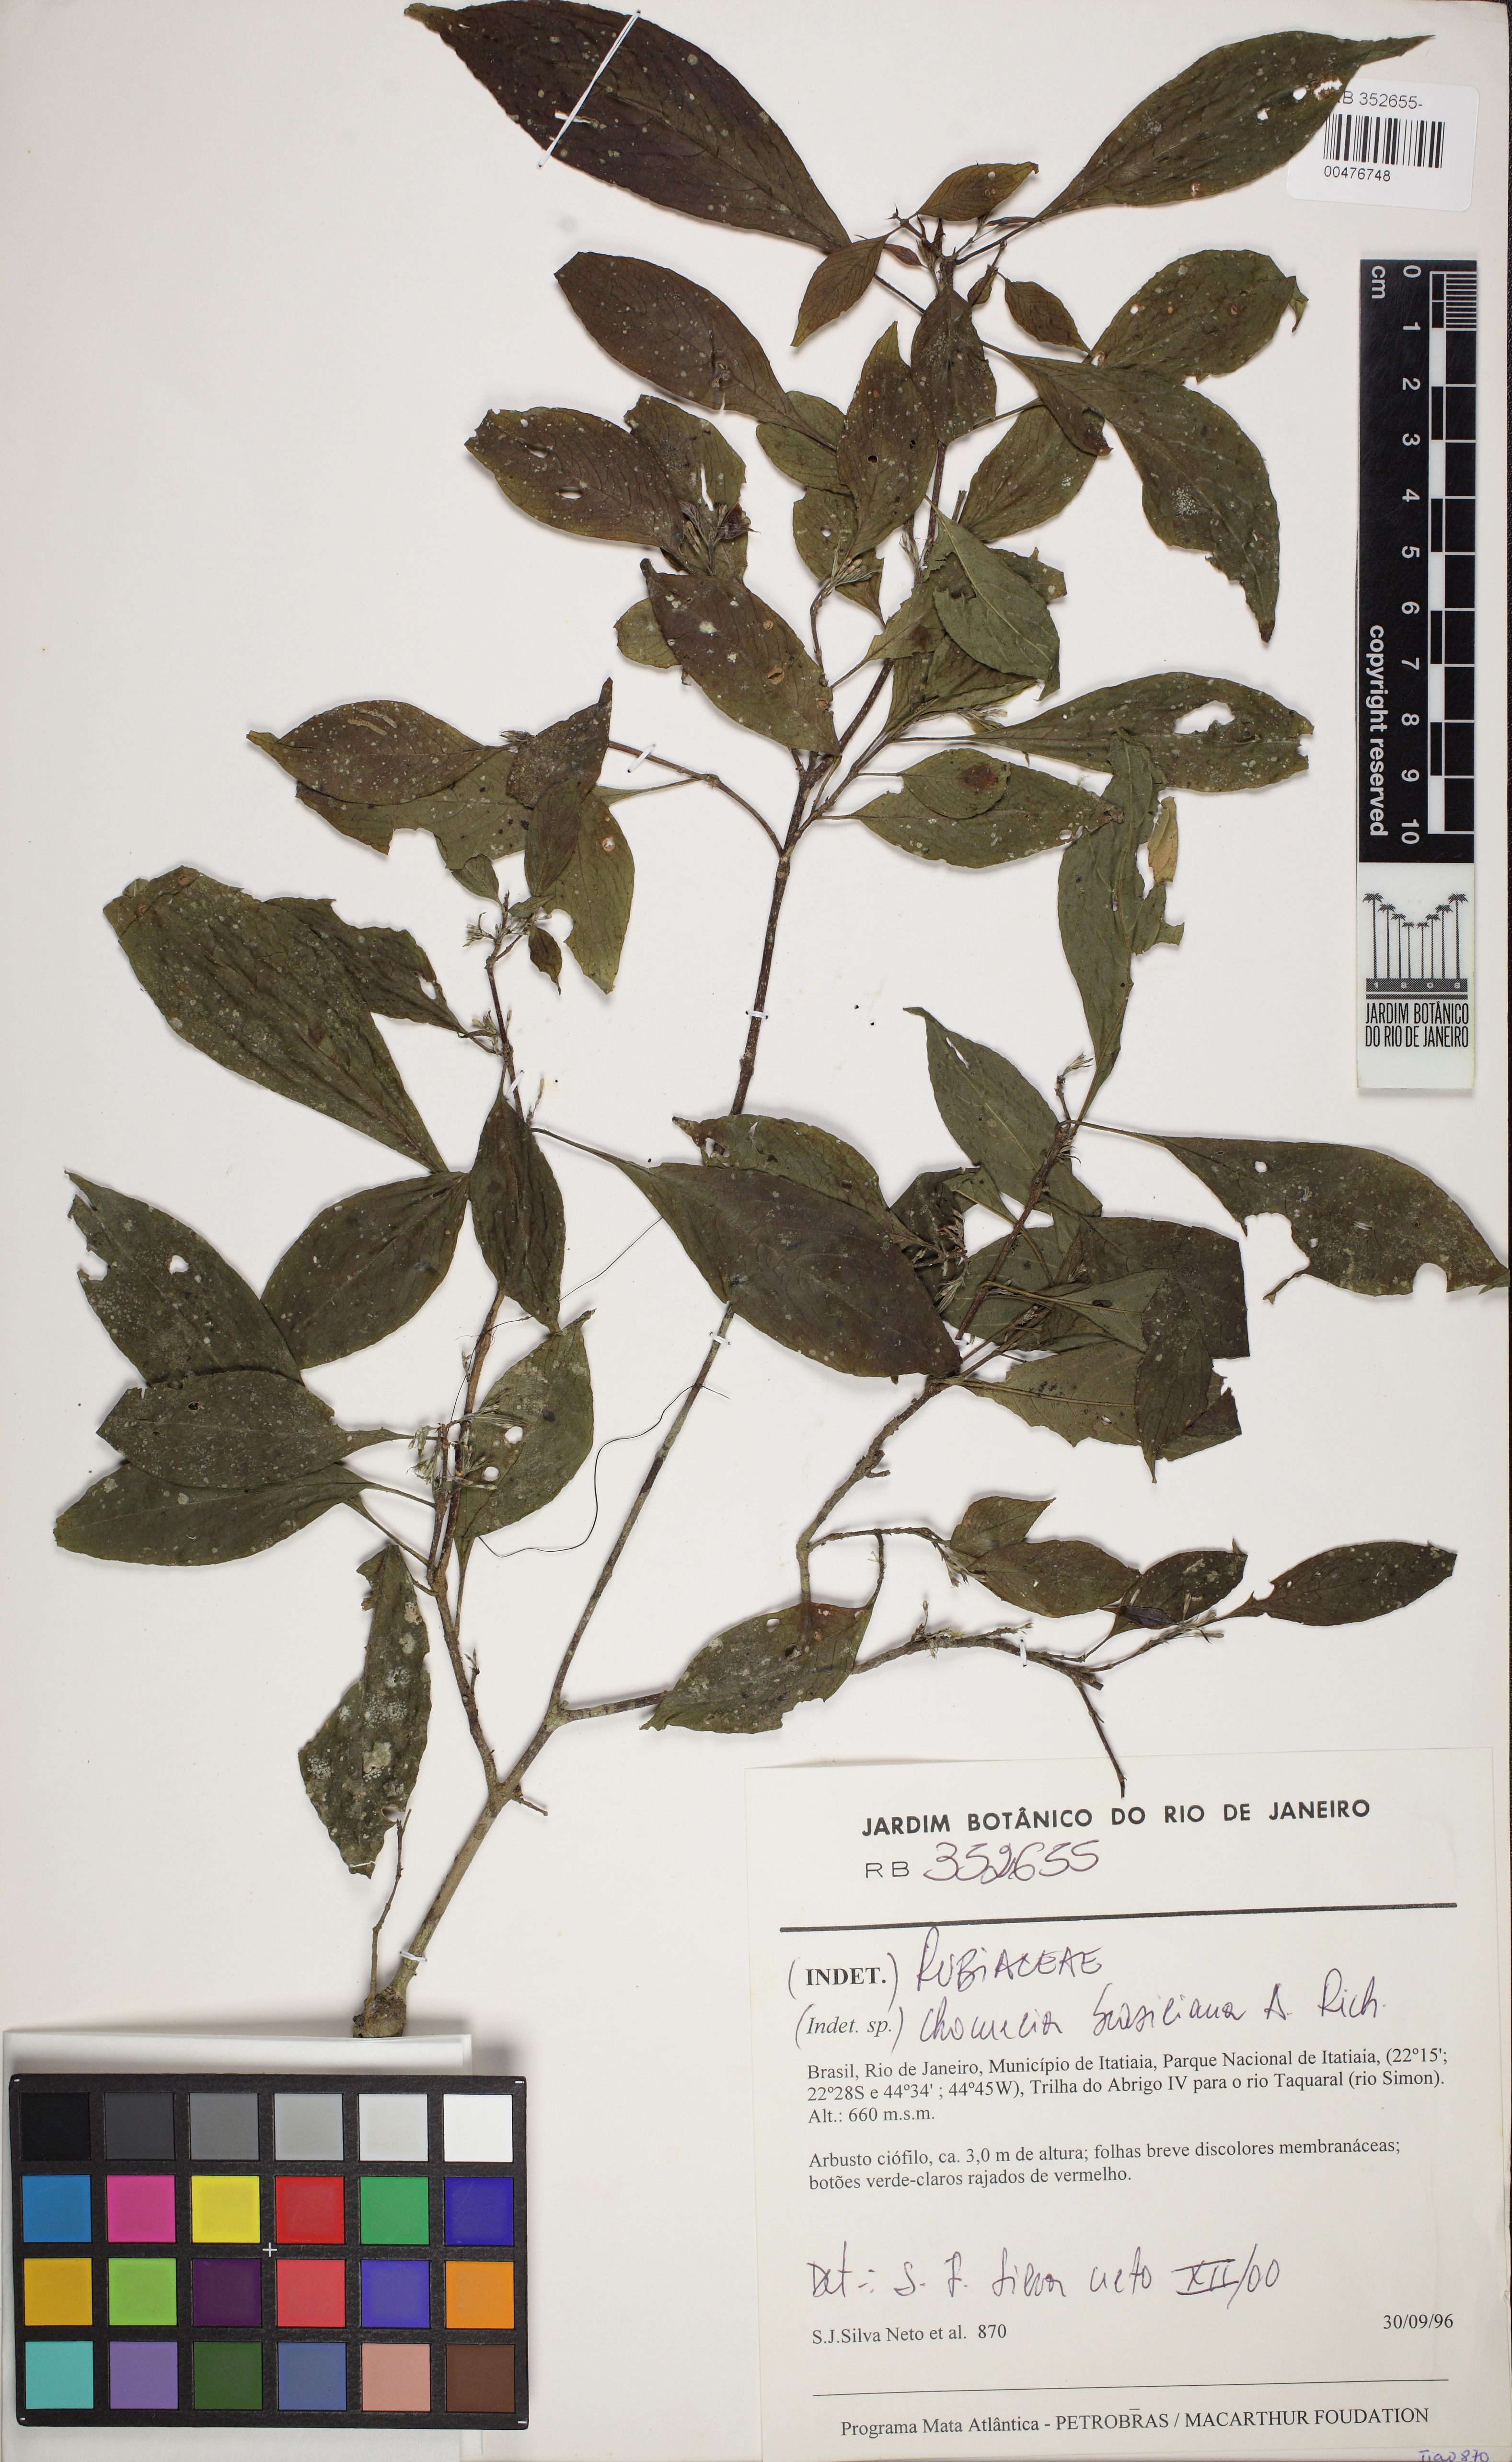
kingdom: Plantae
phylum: Tracheophyta
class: Magnoliopsida
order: Gentianales
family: Rubiaceae
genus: Chomelia
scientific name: Chomelia brasiliana
